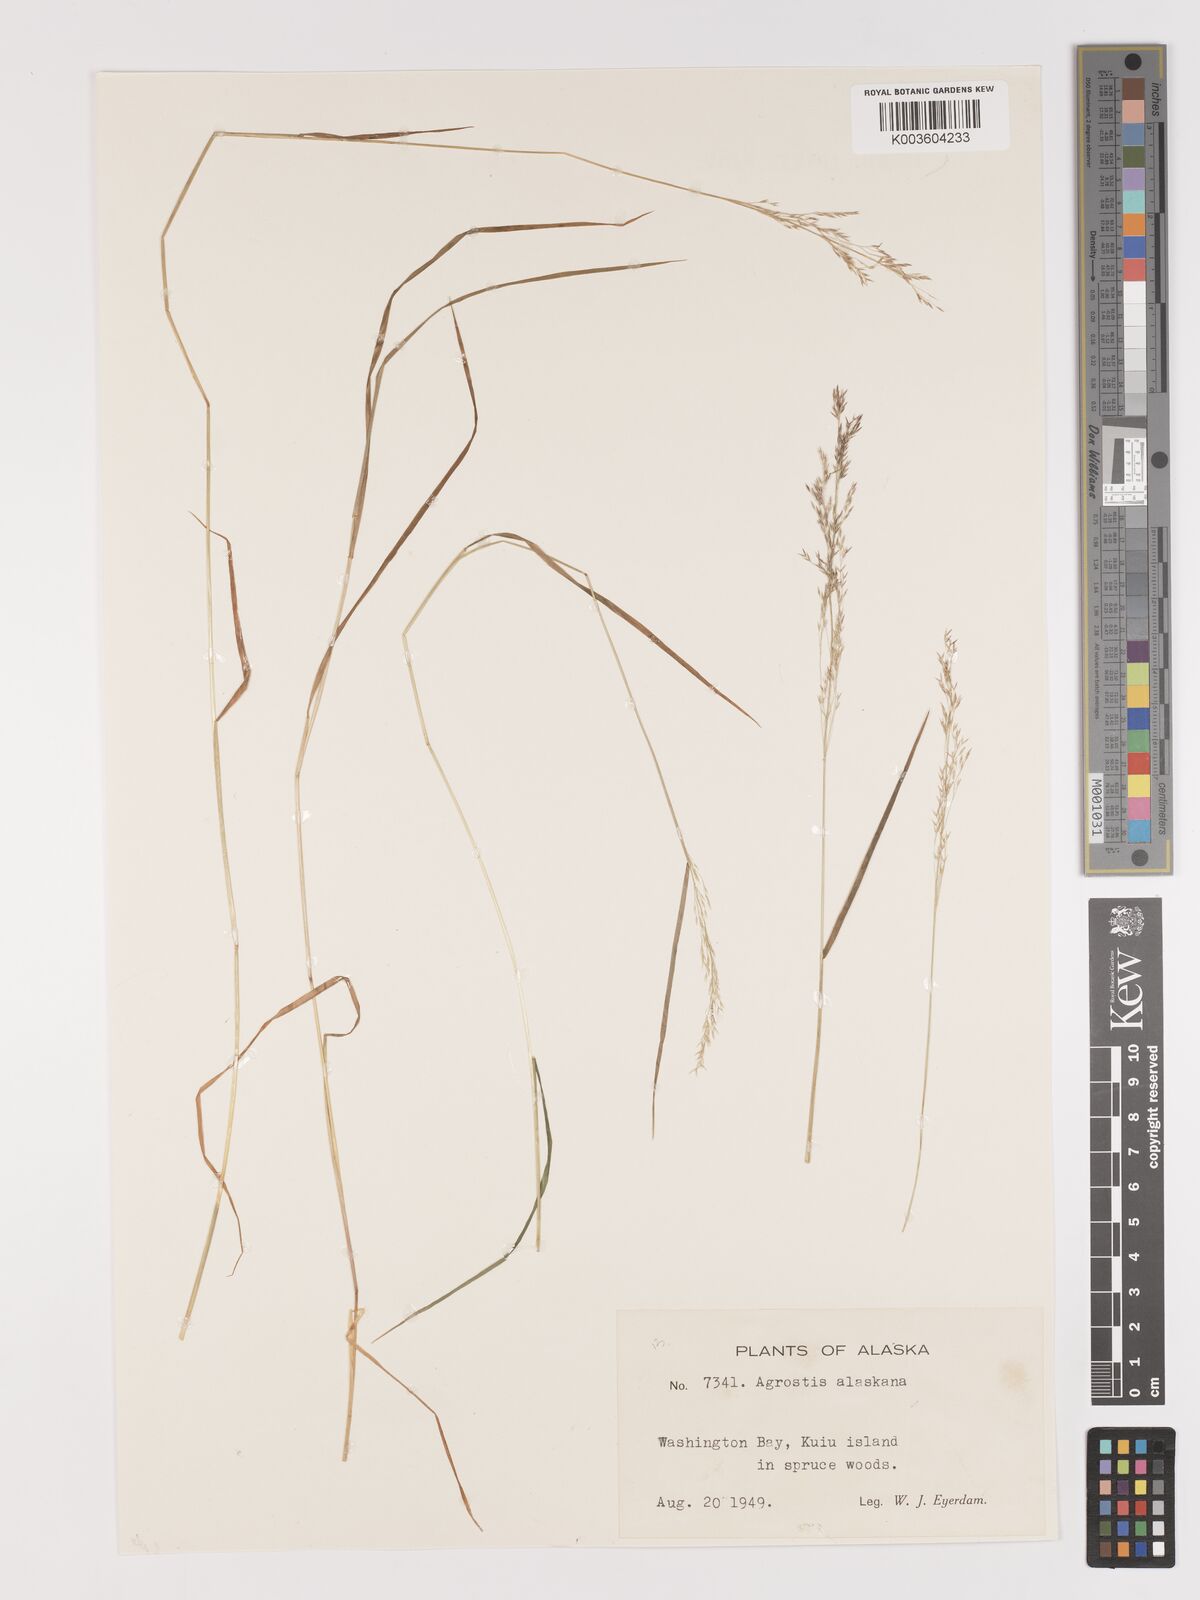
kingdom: Plantae
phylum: Tracheophyta
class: Liliopsida
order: Poales
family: Poaceae
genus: Agrostis
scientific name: Agrostis exarata
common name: Spike bent
